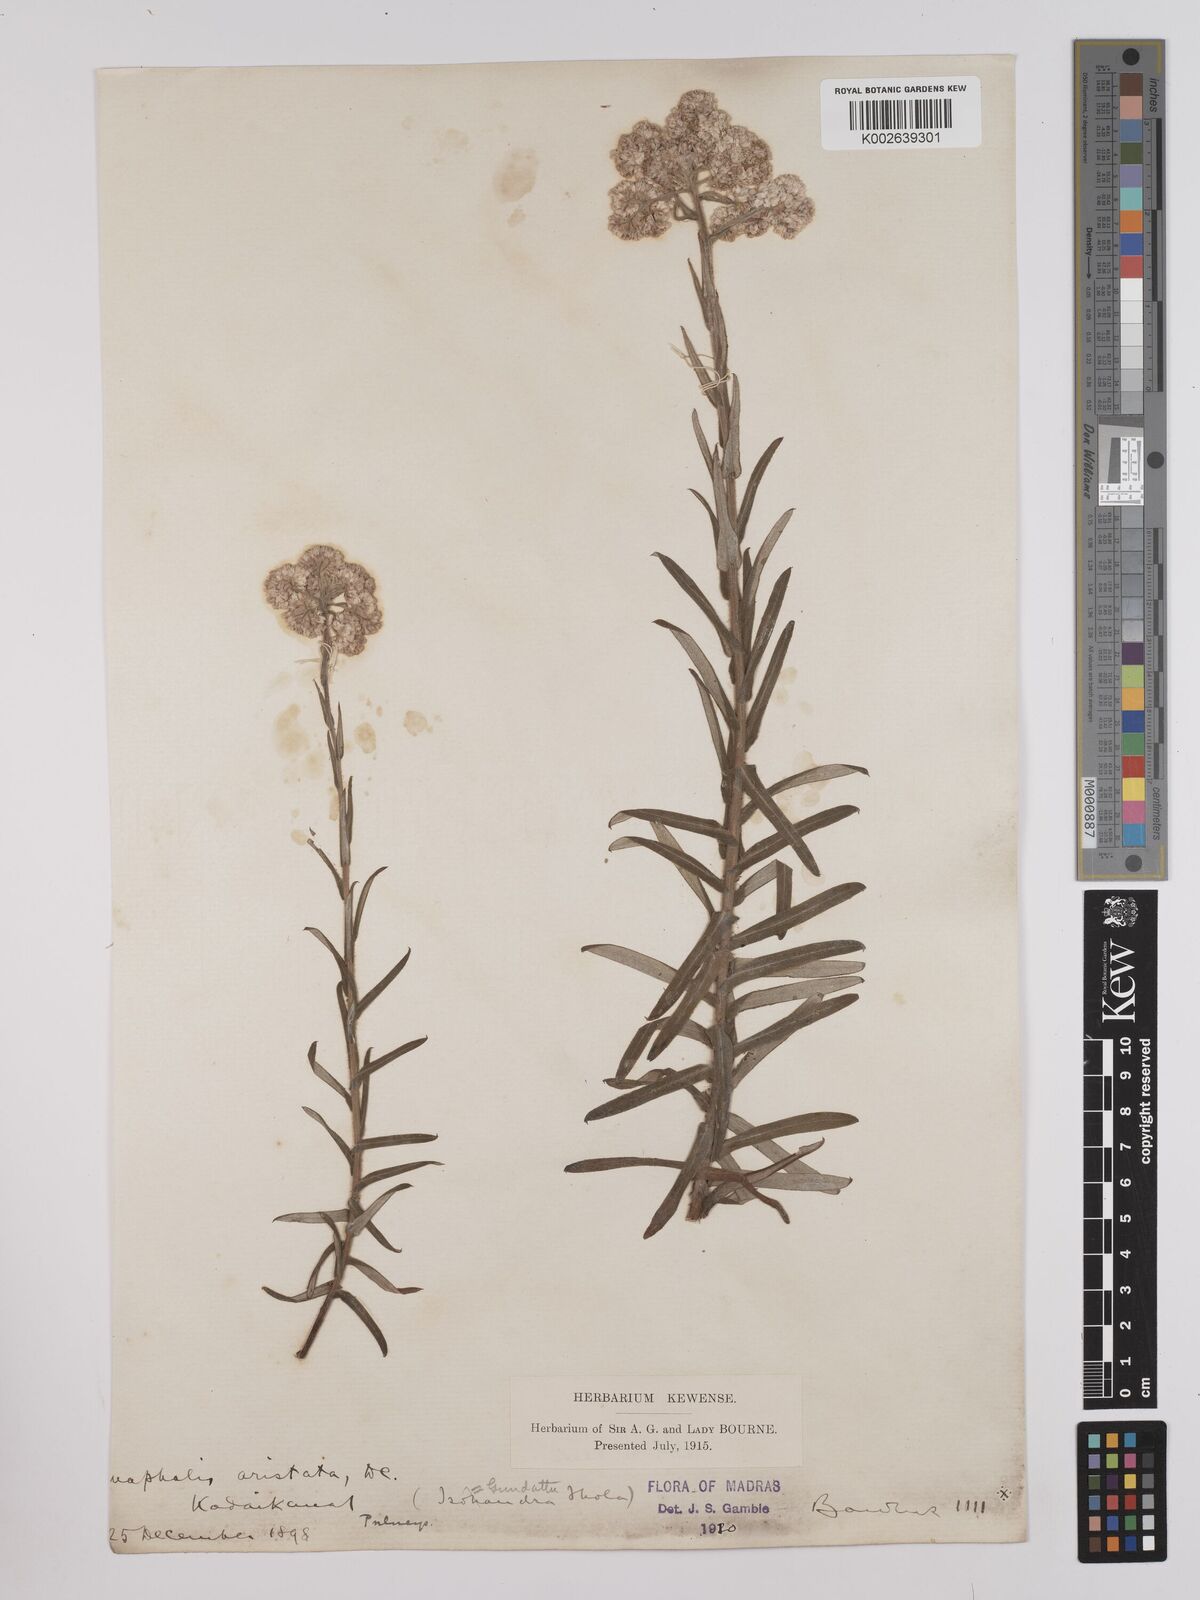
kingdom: Plantae
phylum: Tracheophyta
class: Magnoliopsida
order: Asterales
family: Asteraceae
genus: Anaphalis
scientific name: Anaphalis aristata
